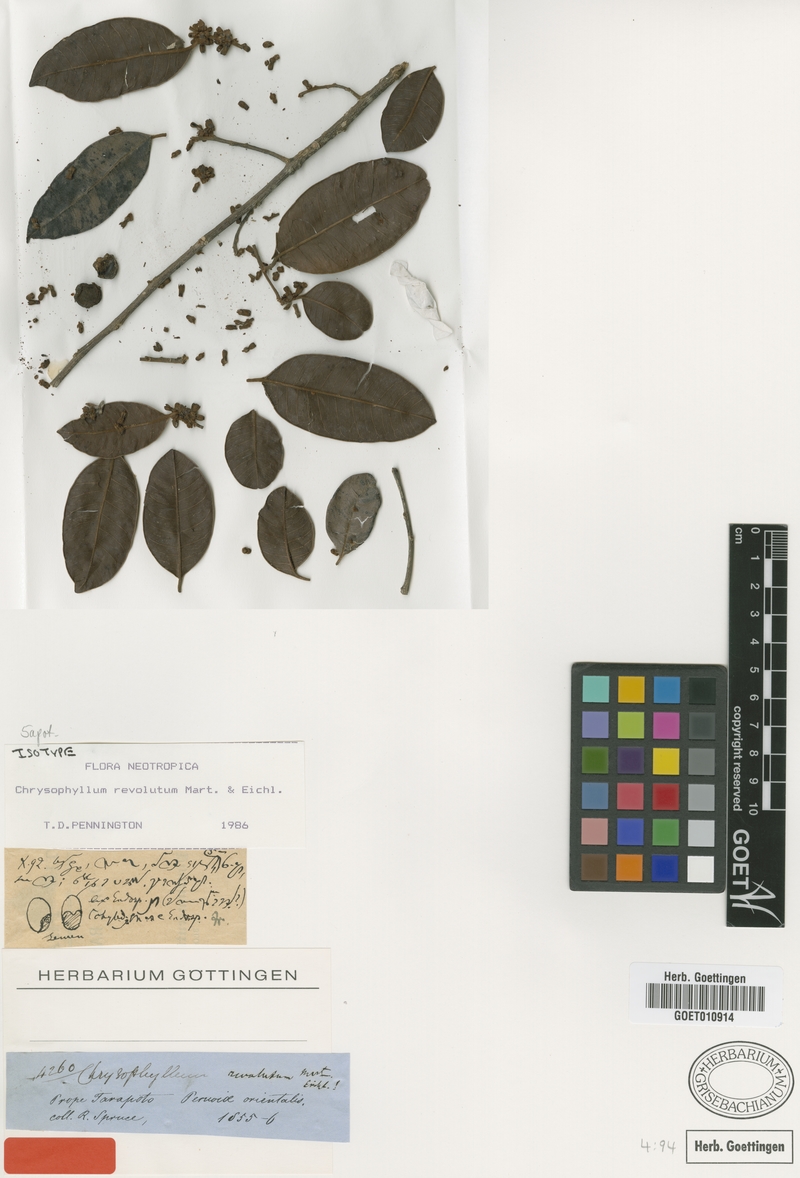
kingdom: Plantae
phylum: Tracheophyta
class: Magnoliopsida
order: Ericales
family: Sapotaceae
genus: Chrysophyllum
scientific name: Chrysophyllum revolutum
